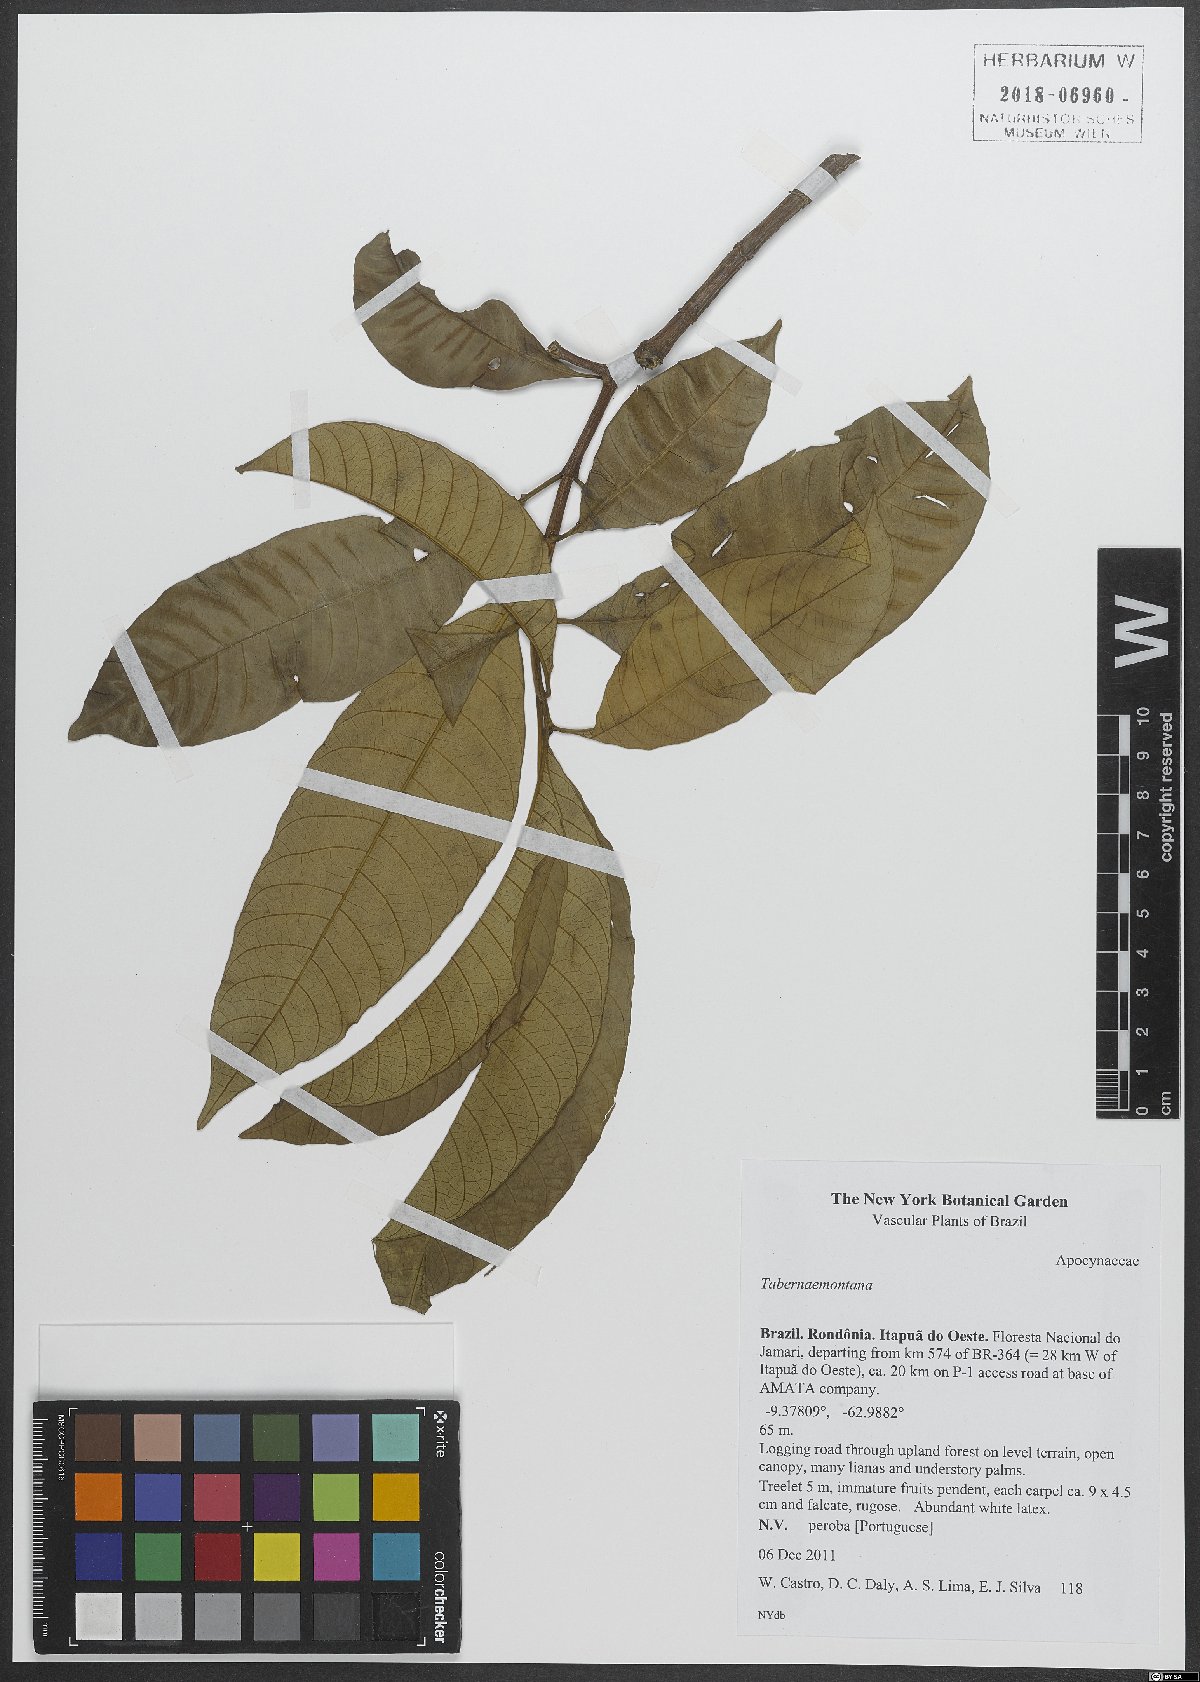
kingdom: Plantae
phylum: Tracheophyta
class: Magnoliopsida
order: Gentianales
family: Apocynaceae
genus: Tabernaemontana
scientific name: Tabernaemontana
